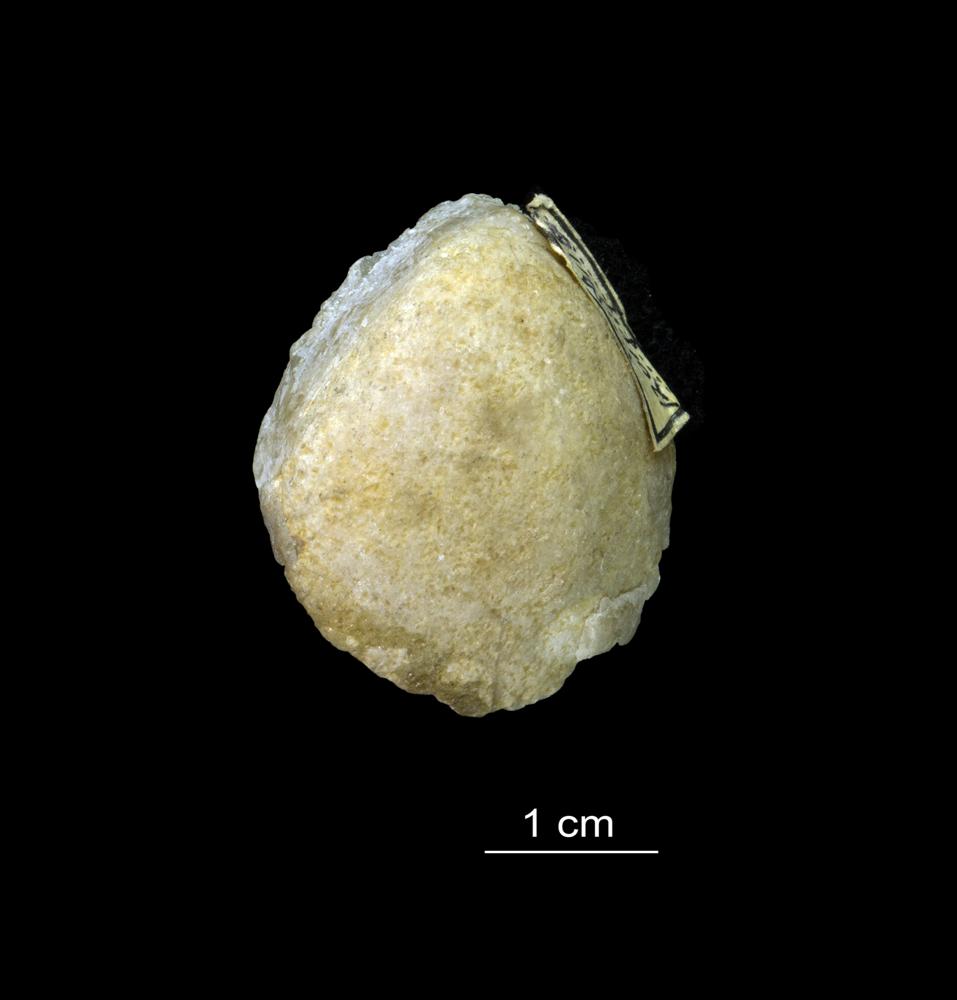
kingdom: Animalia
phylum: Brachiopoda
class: Rhynchonellata
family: Virgianidae
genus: Borealis
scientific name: Borealis Gypidula borealis
